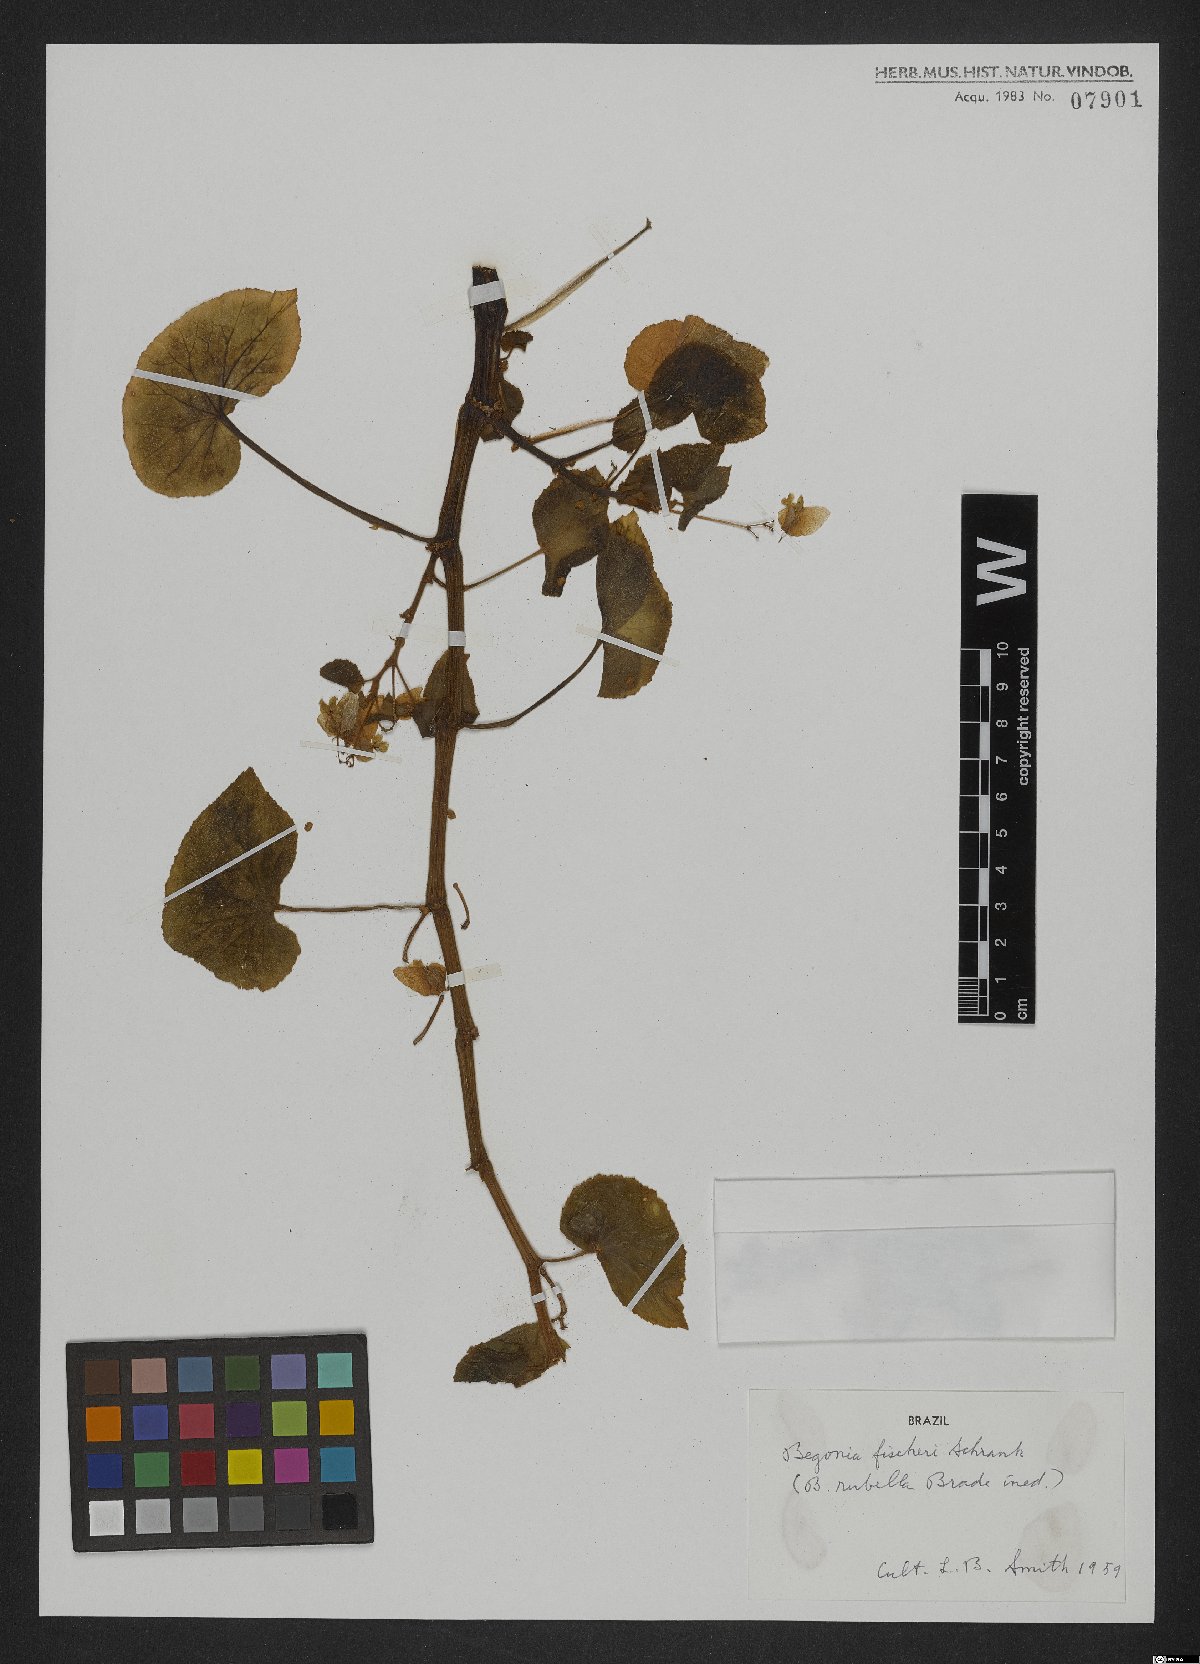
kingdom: Plantae
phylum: Tracheophyta
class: Magnoliopsida
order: Cucurbitales
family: Begoniaceae
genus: Begonia
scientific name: Begonia fischeri
